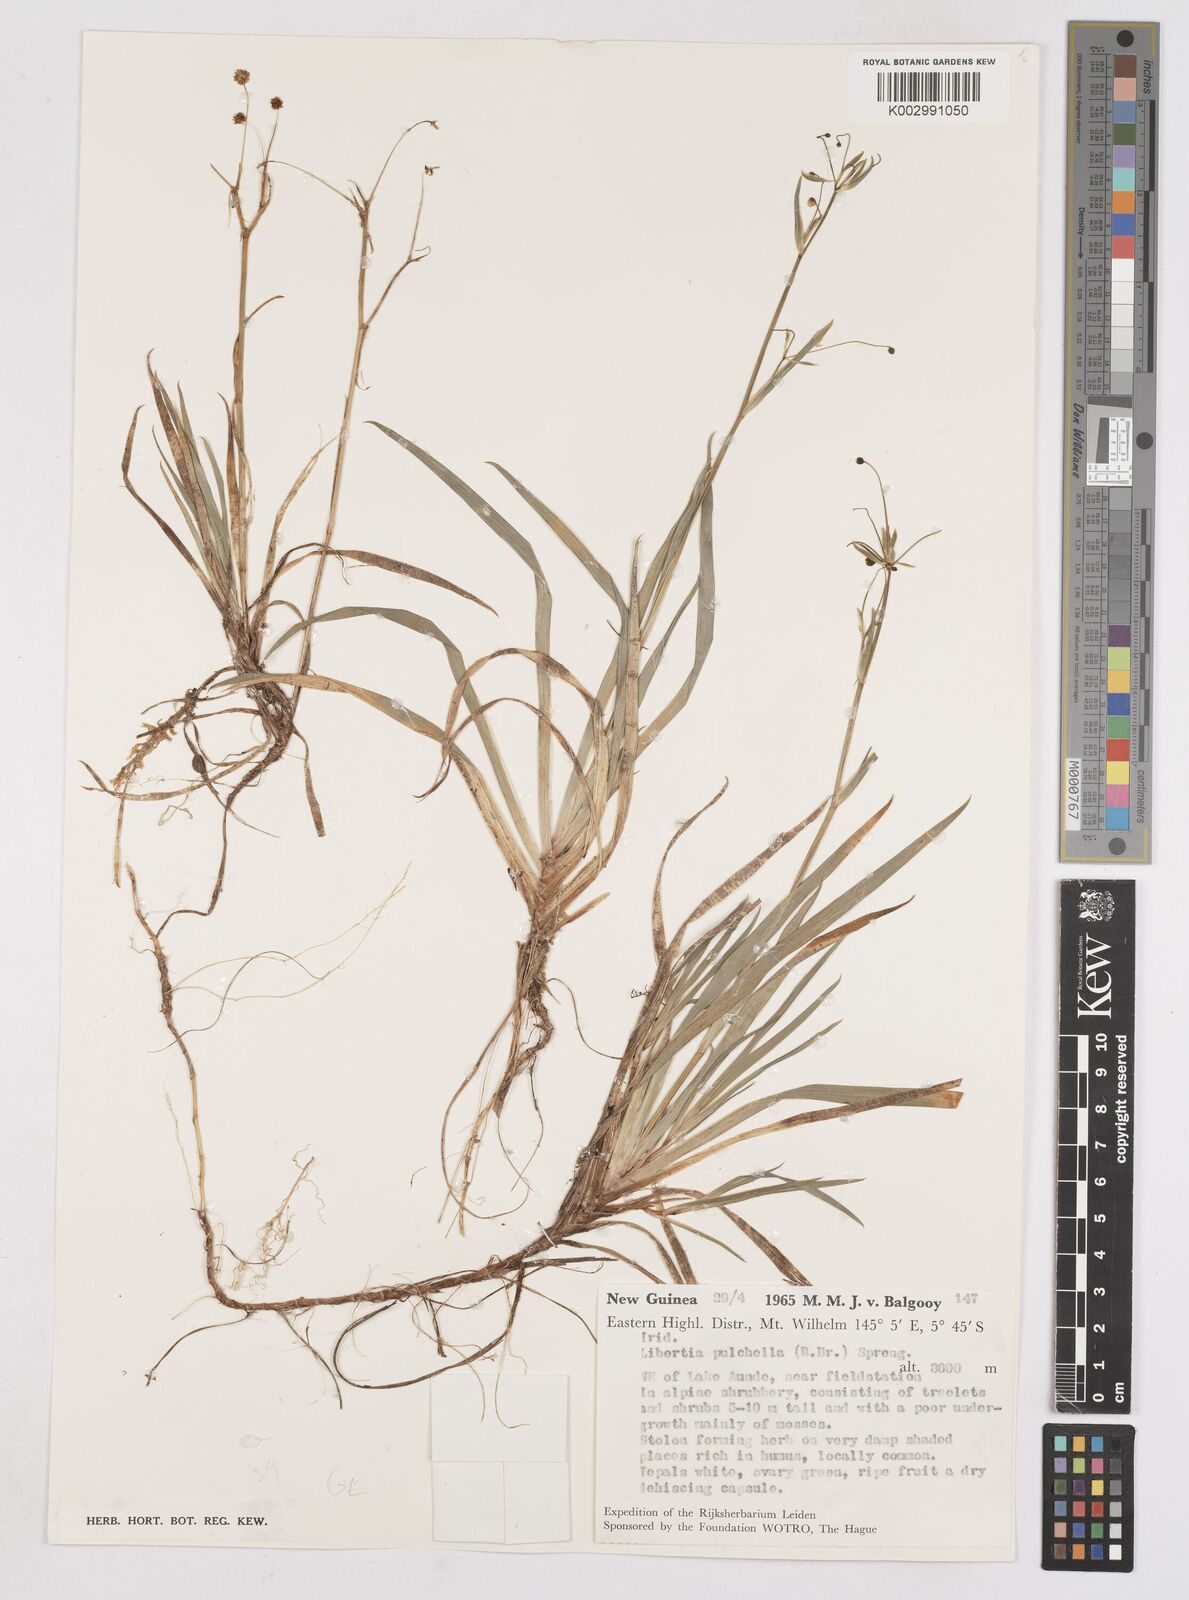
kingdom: Plantae
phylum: Tracheophyta
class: Liliopsida
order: Asparagales
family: Iridaceae
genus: Libertia
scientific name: Libertia pulchella
